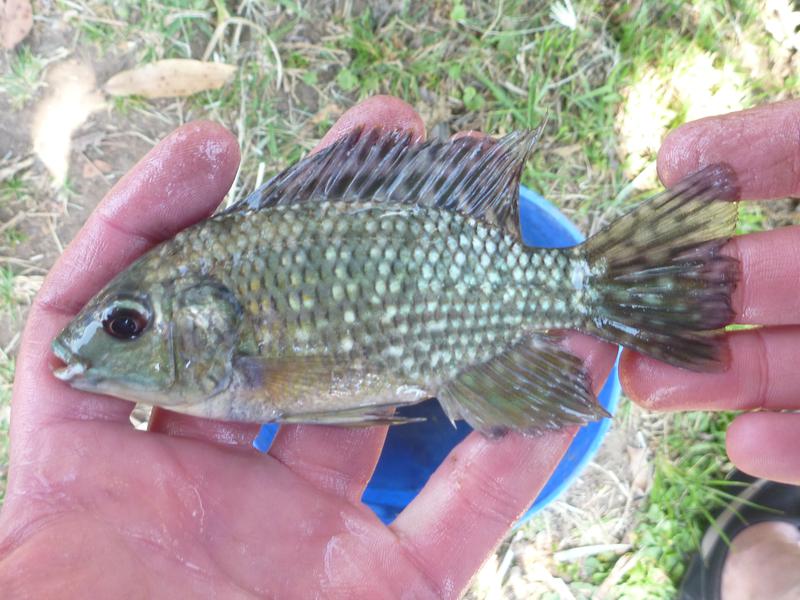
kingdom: Animalia
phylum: Chordata
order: Perciformes
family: Cichlidae
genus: Oreochromis
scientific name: Oreochromis leucostictus
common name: Blue spotted tilapia
